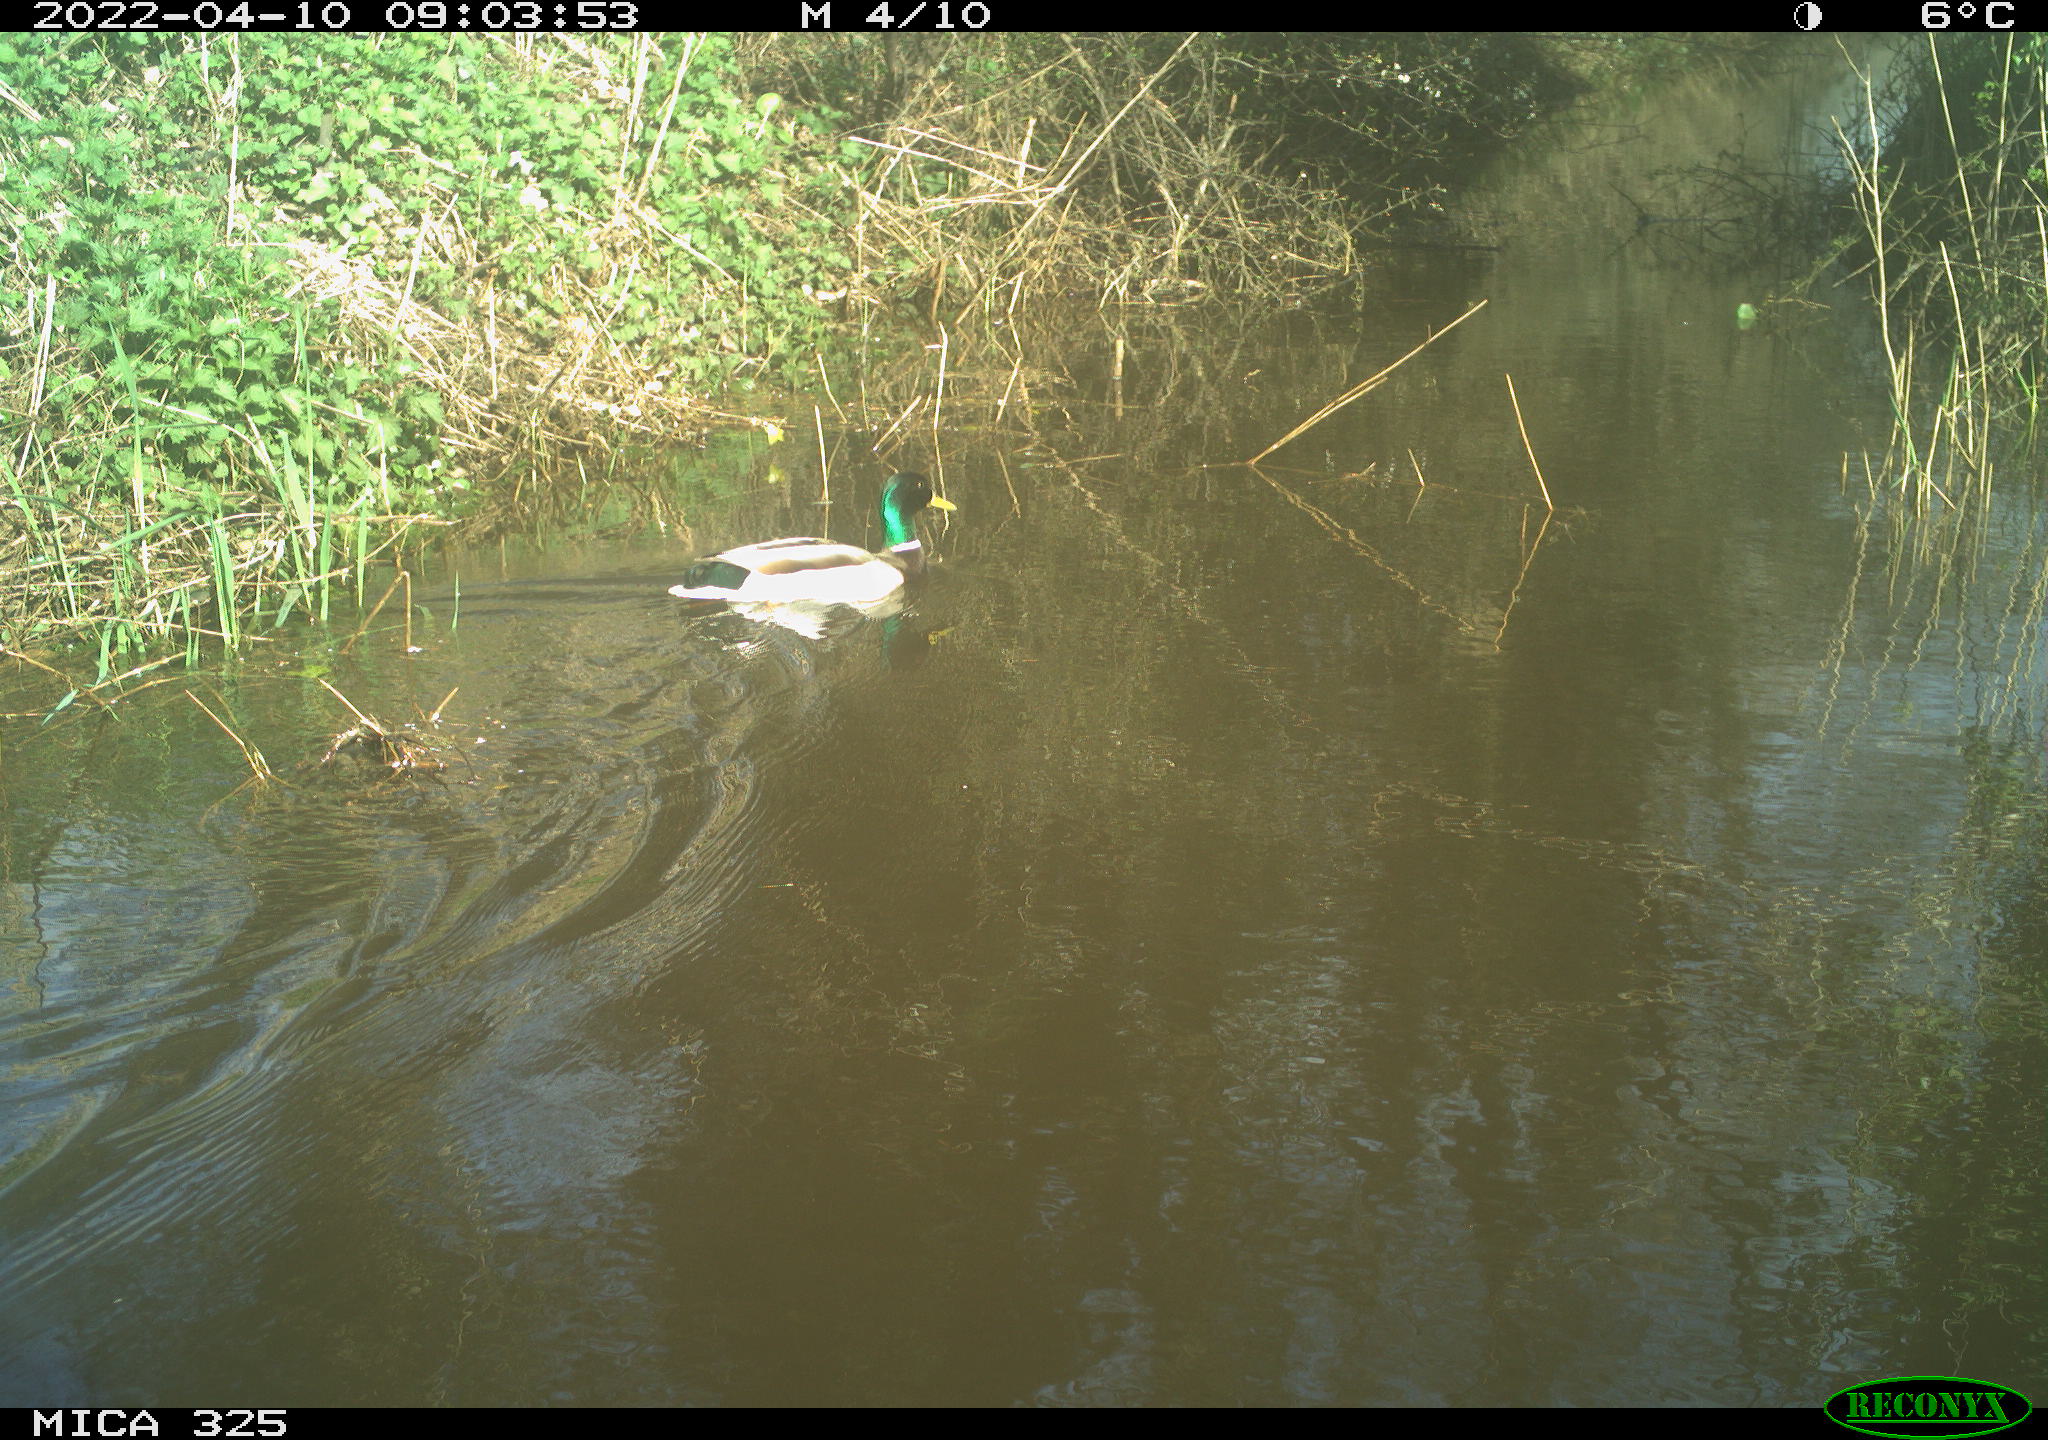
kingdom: Animalia
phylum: Chordata
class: Aves
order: Anseriformes
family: Anatidae
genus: Anas
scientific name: Anas platyrhynchos
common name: Mallard
